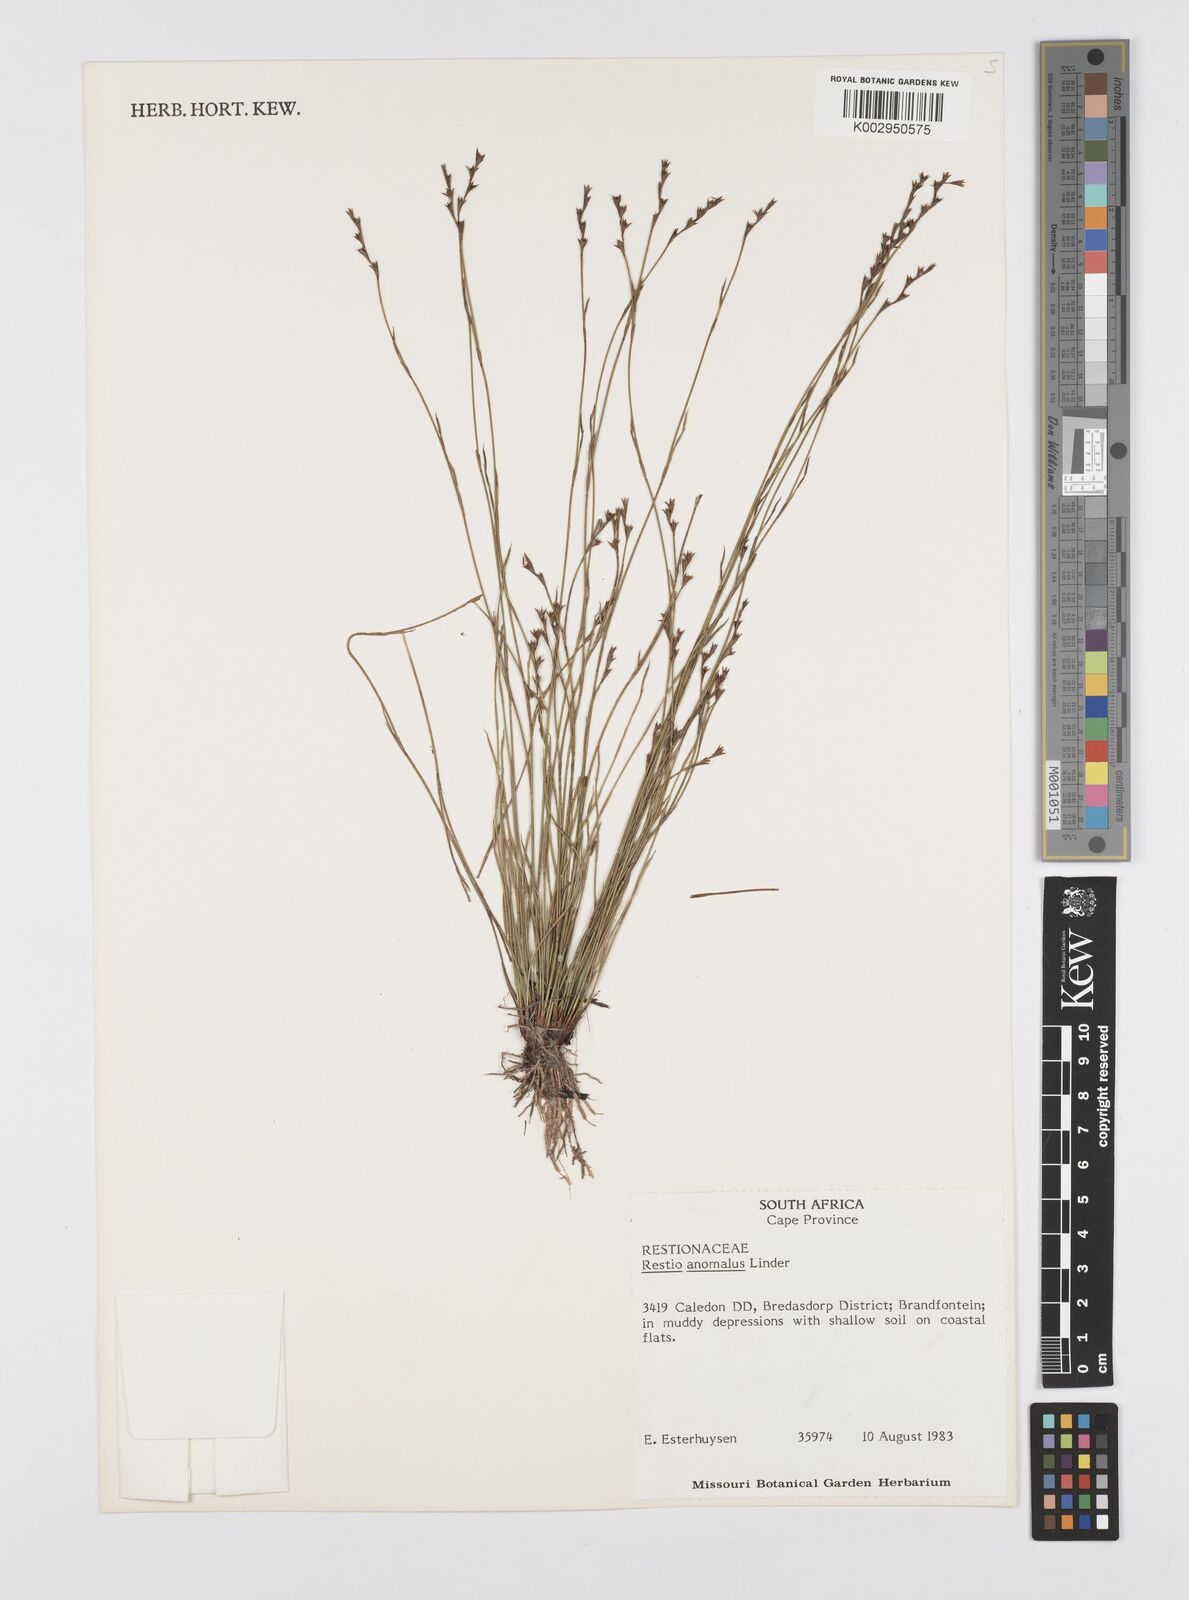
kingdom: Plantae
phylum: Tracheophyta
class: Liliopsida
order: Poales
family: Restionaceae
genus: Restio
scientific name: Restio anomalus
